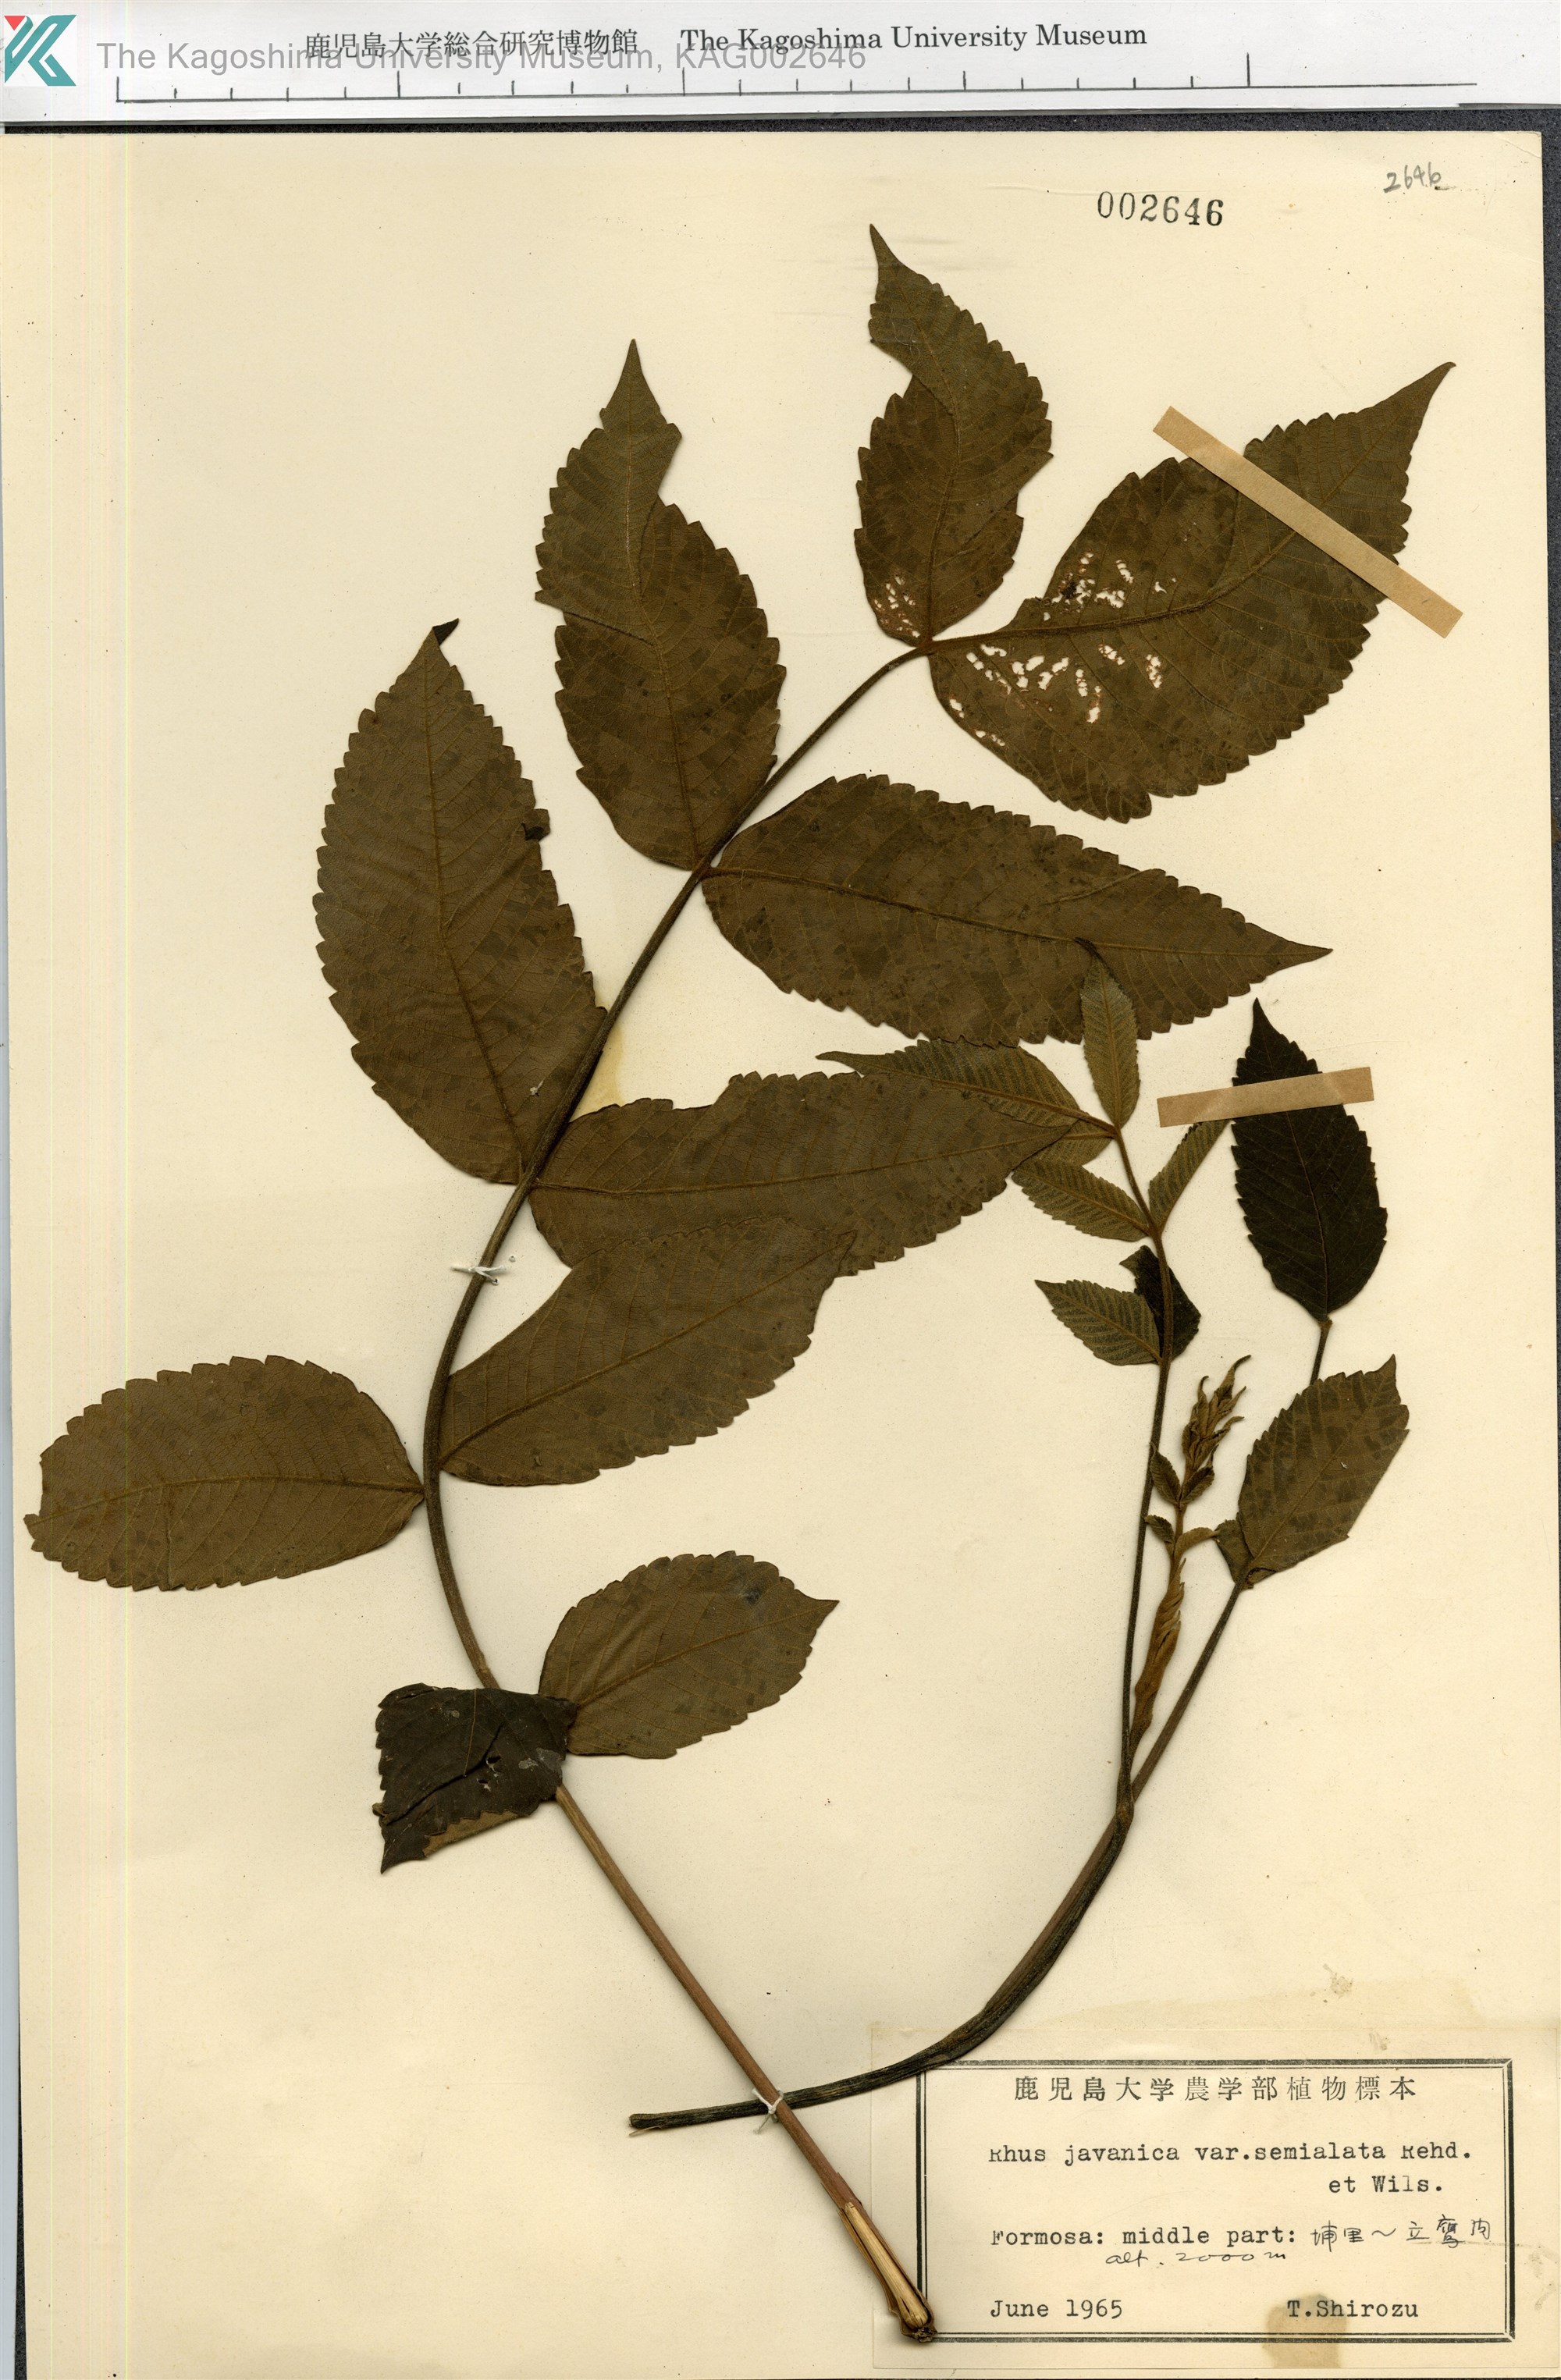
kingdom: Plantae
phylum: Tracheophyta
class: Magnoliopsida
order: Sapindales
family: Simaroubaceae
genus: Brucea
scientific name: Brucea javanica
